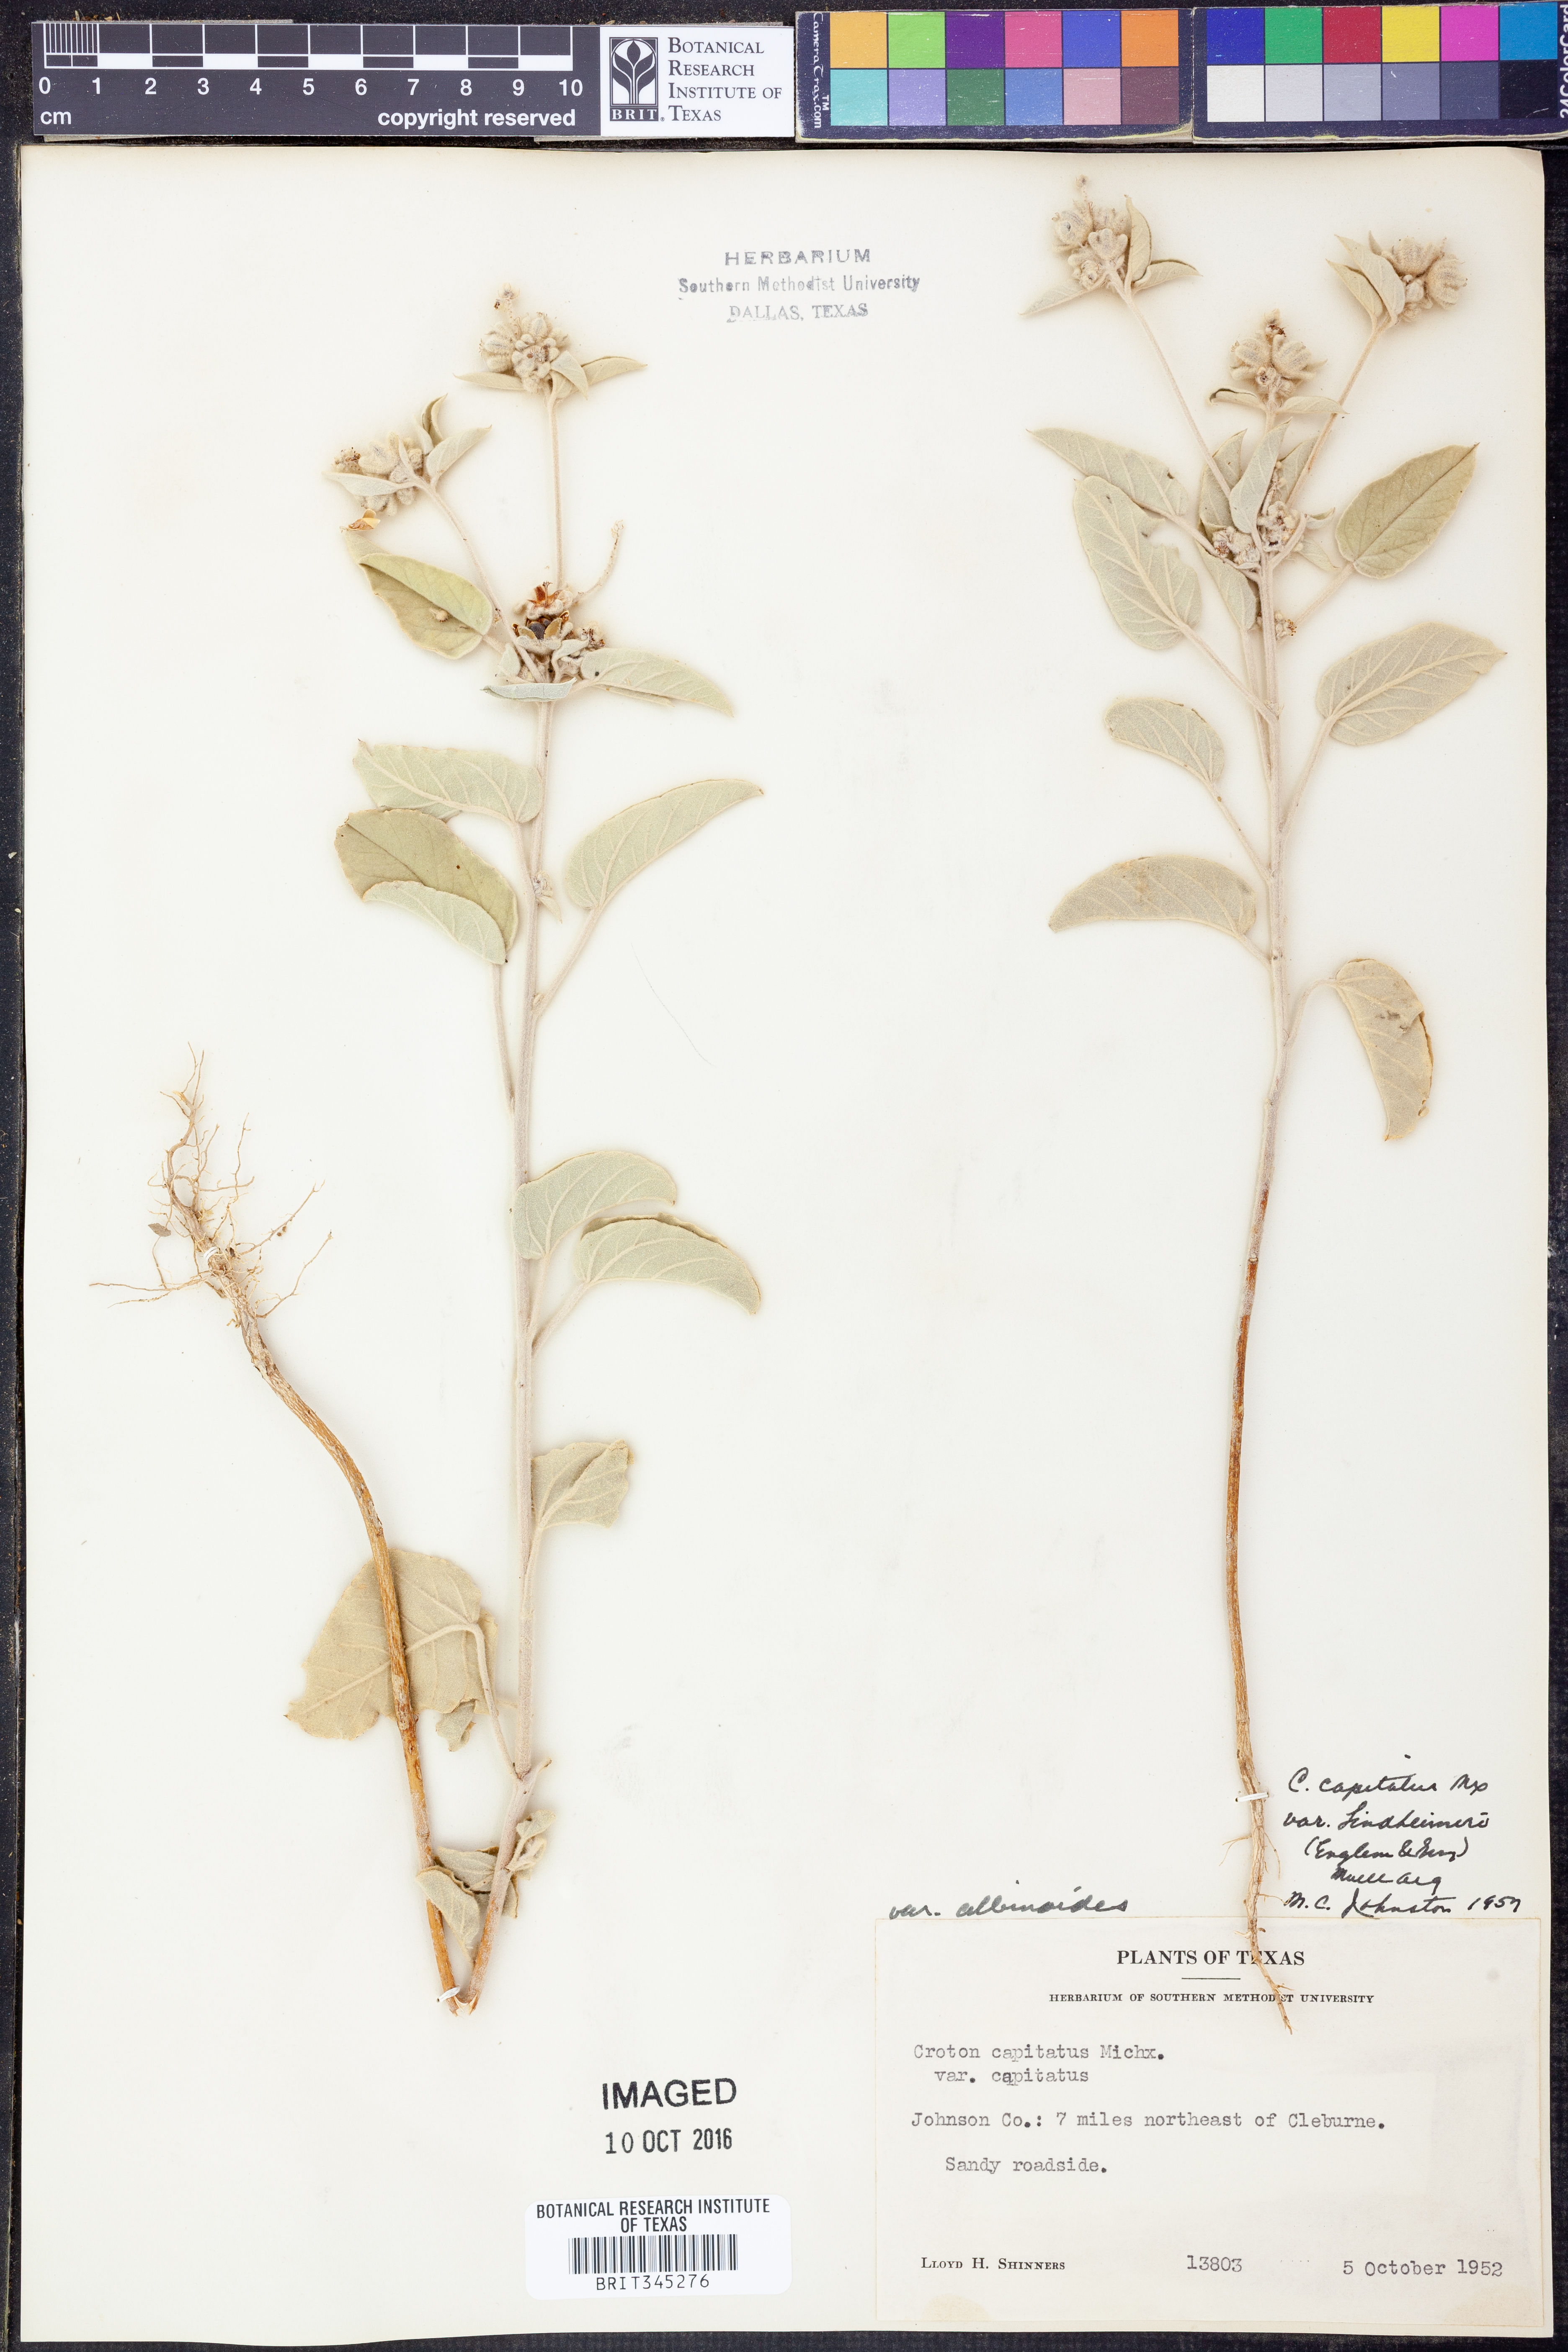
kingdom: Plantae
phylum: Tracheophyta
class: Magnoliopsida
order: Malpighiales
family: Euphorbiaceae
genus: Croton
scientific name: Croton lindheimeri
